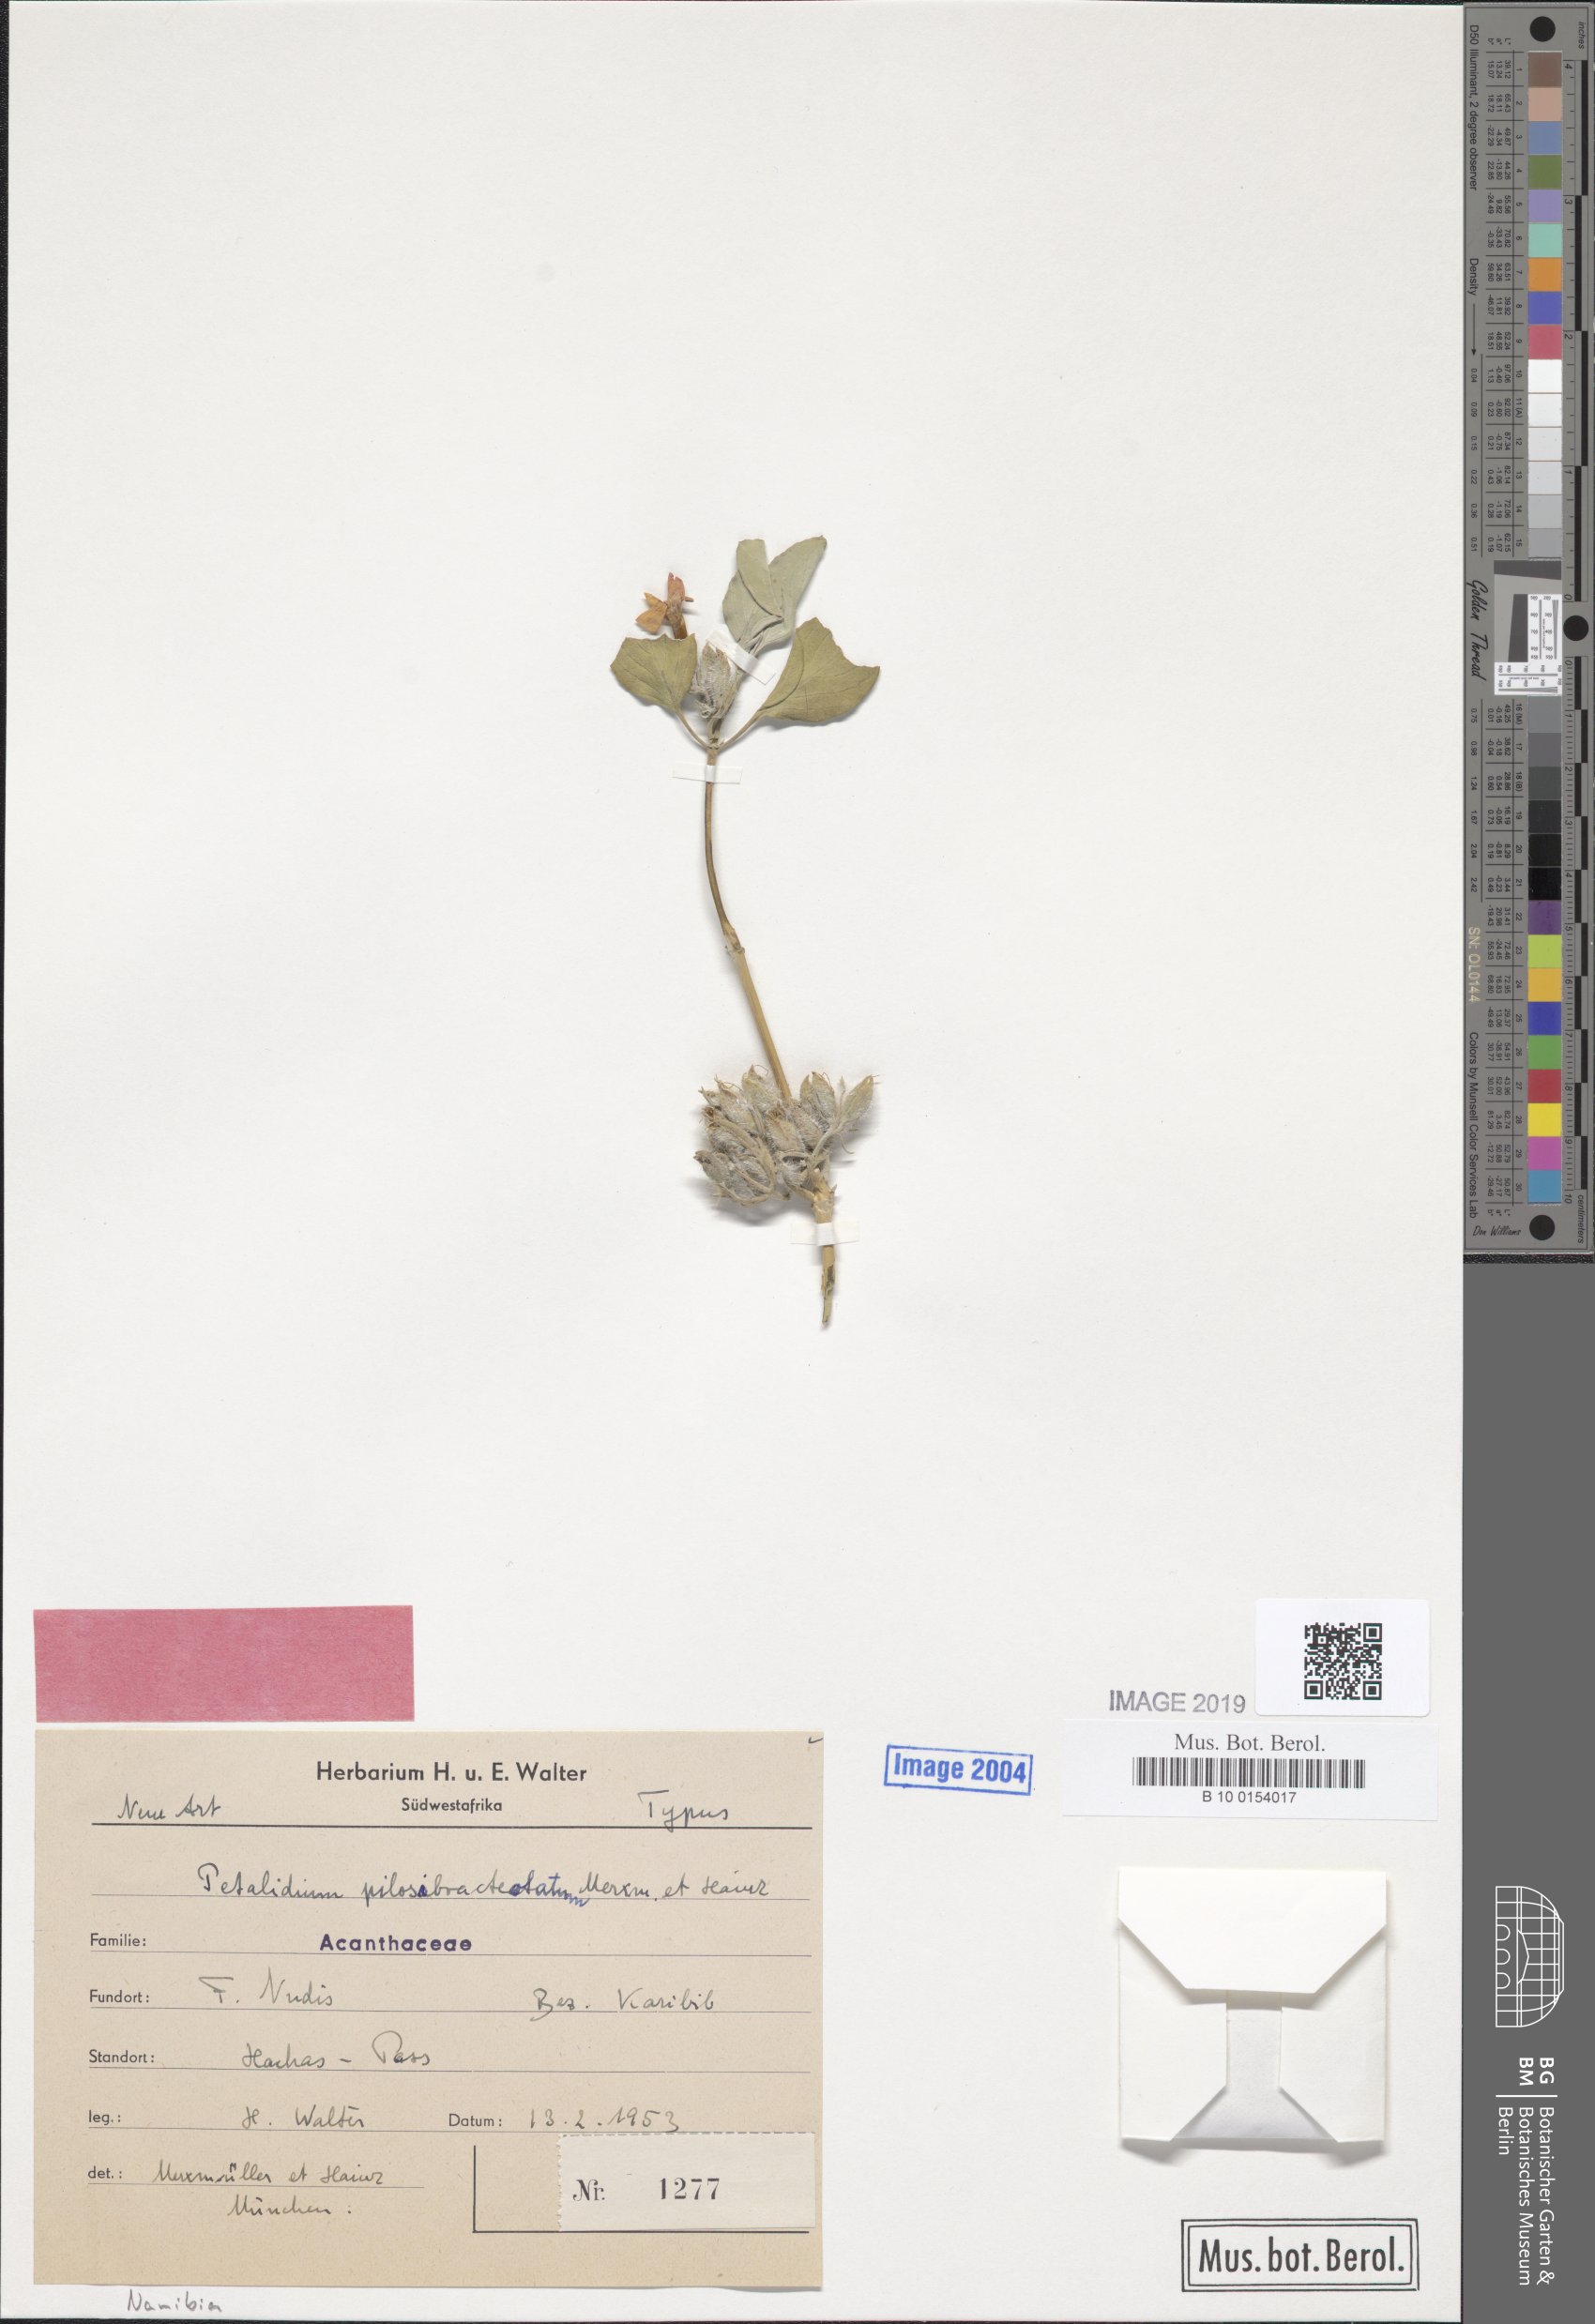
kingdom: Plantae
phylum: Tracheophyta
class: Magnoliopsida
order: Lamiales
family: Acanthaceae
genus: Petalidium
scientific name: Petalidium pilosibracteolatum
